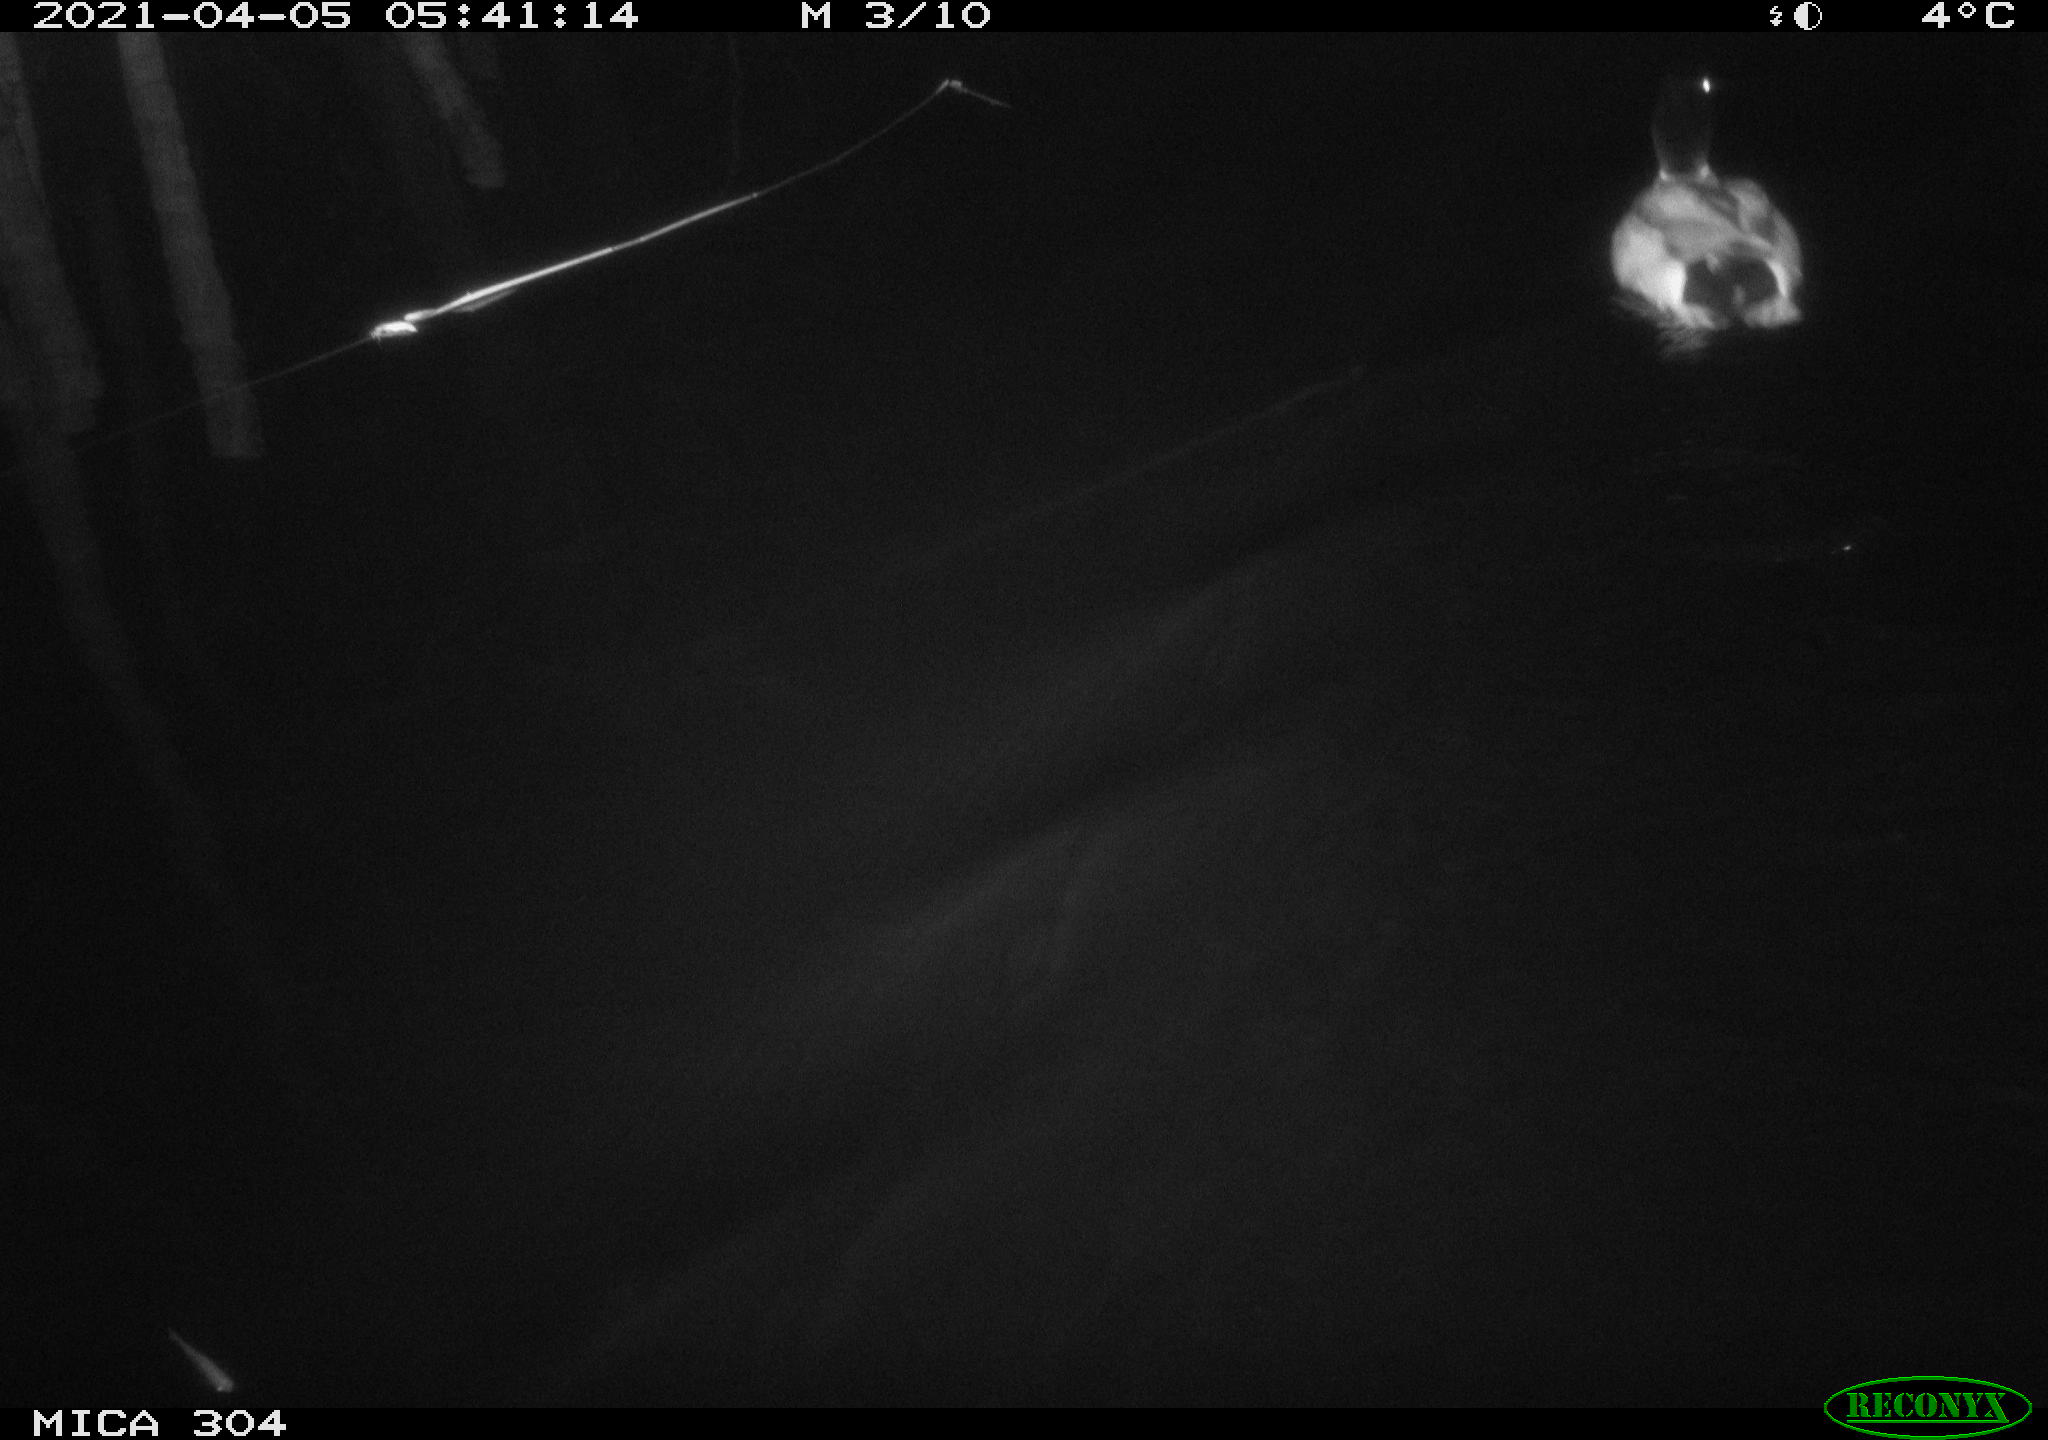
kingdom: Animalia
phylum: Chordata
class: Aves
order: Anseriformes
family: Anatidae
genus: Anas
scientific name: Anas
